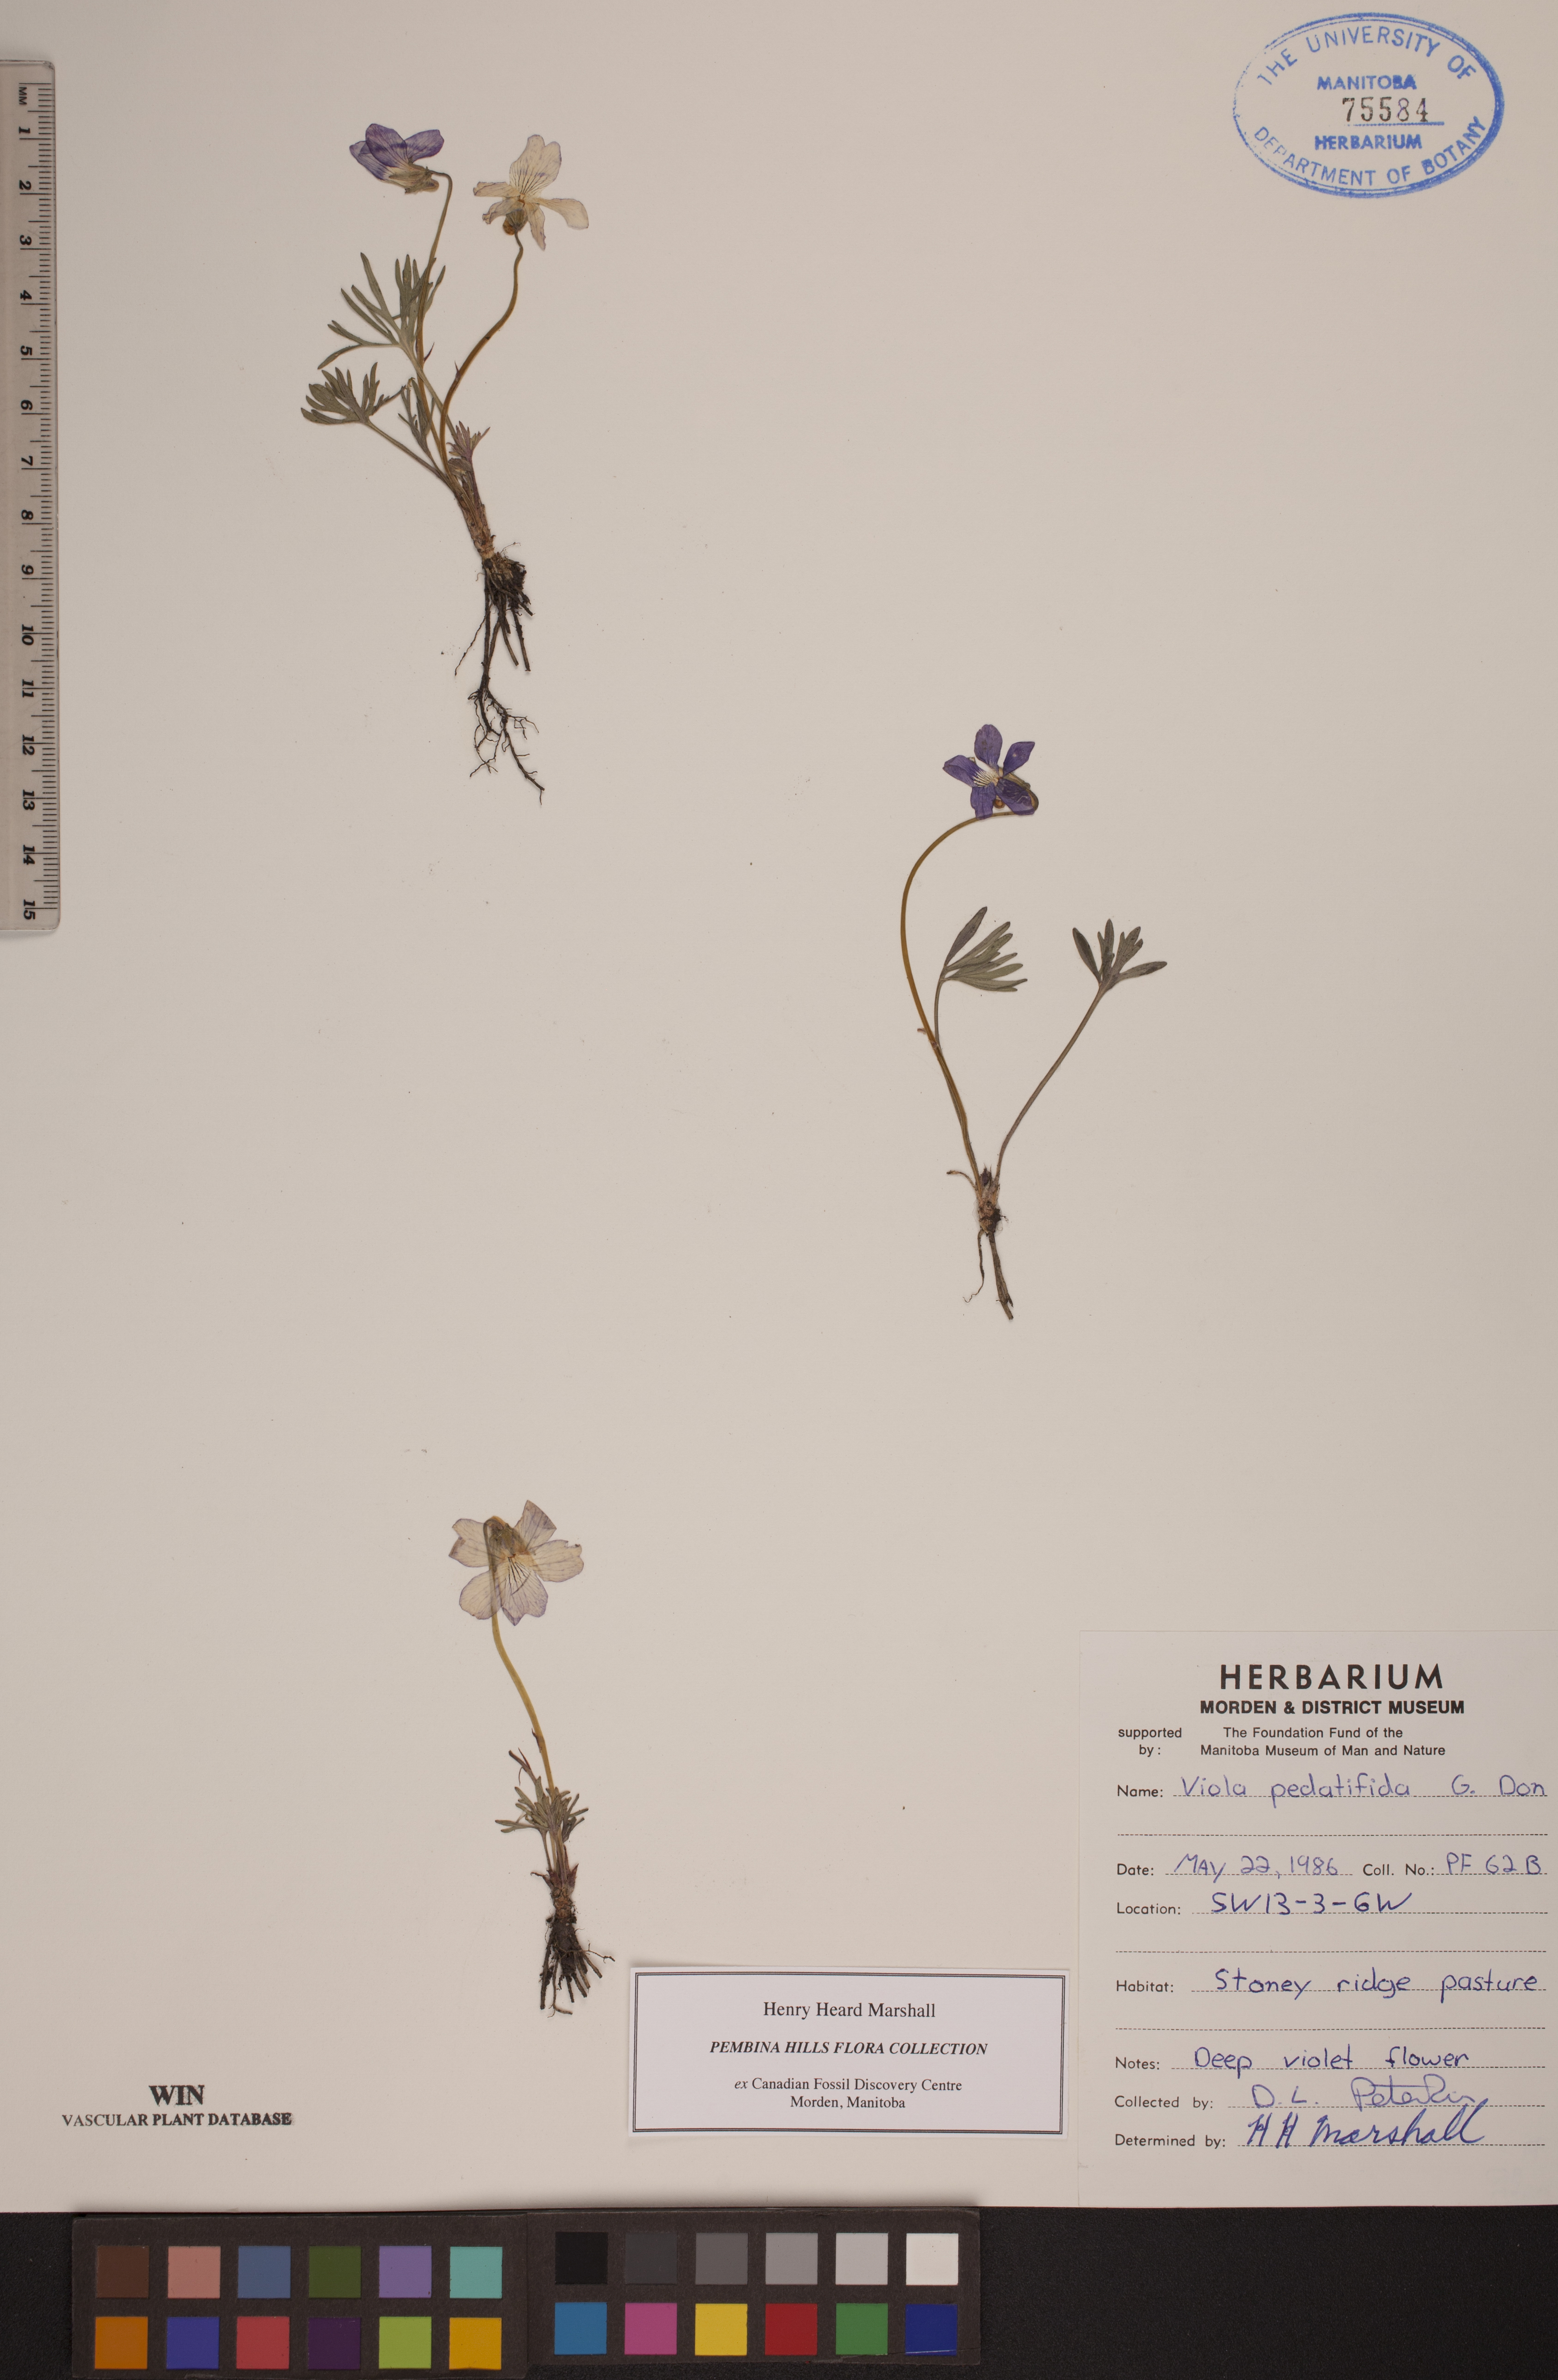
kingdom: Plantae
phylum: Tracheophyta
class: Magnoliopsida
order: Malpighiales
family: Violaceae
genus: Viola
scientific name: Viola pedatifida
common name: Prairie violet
